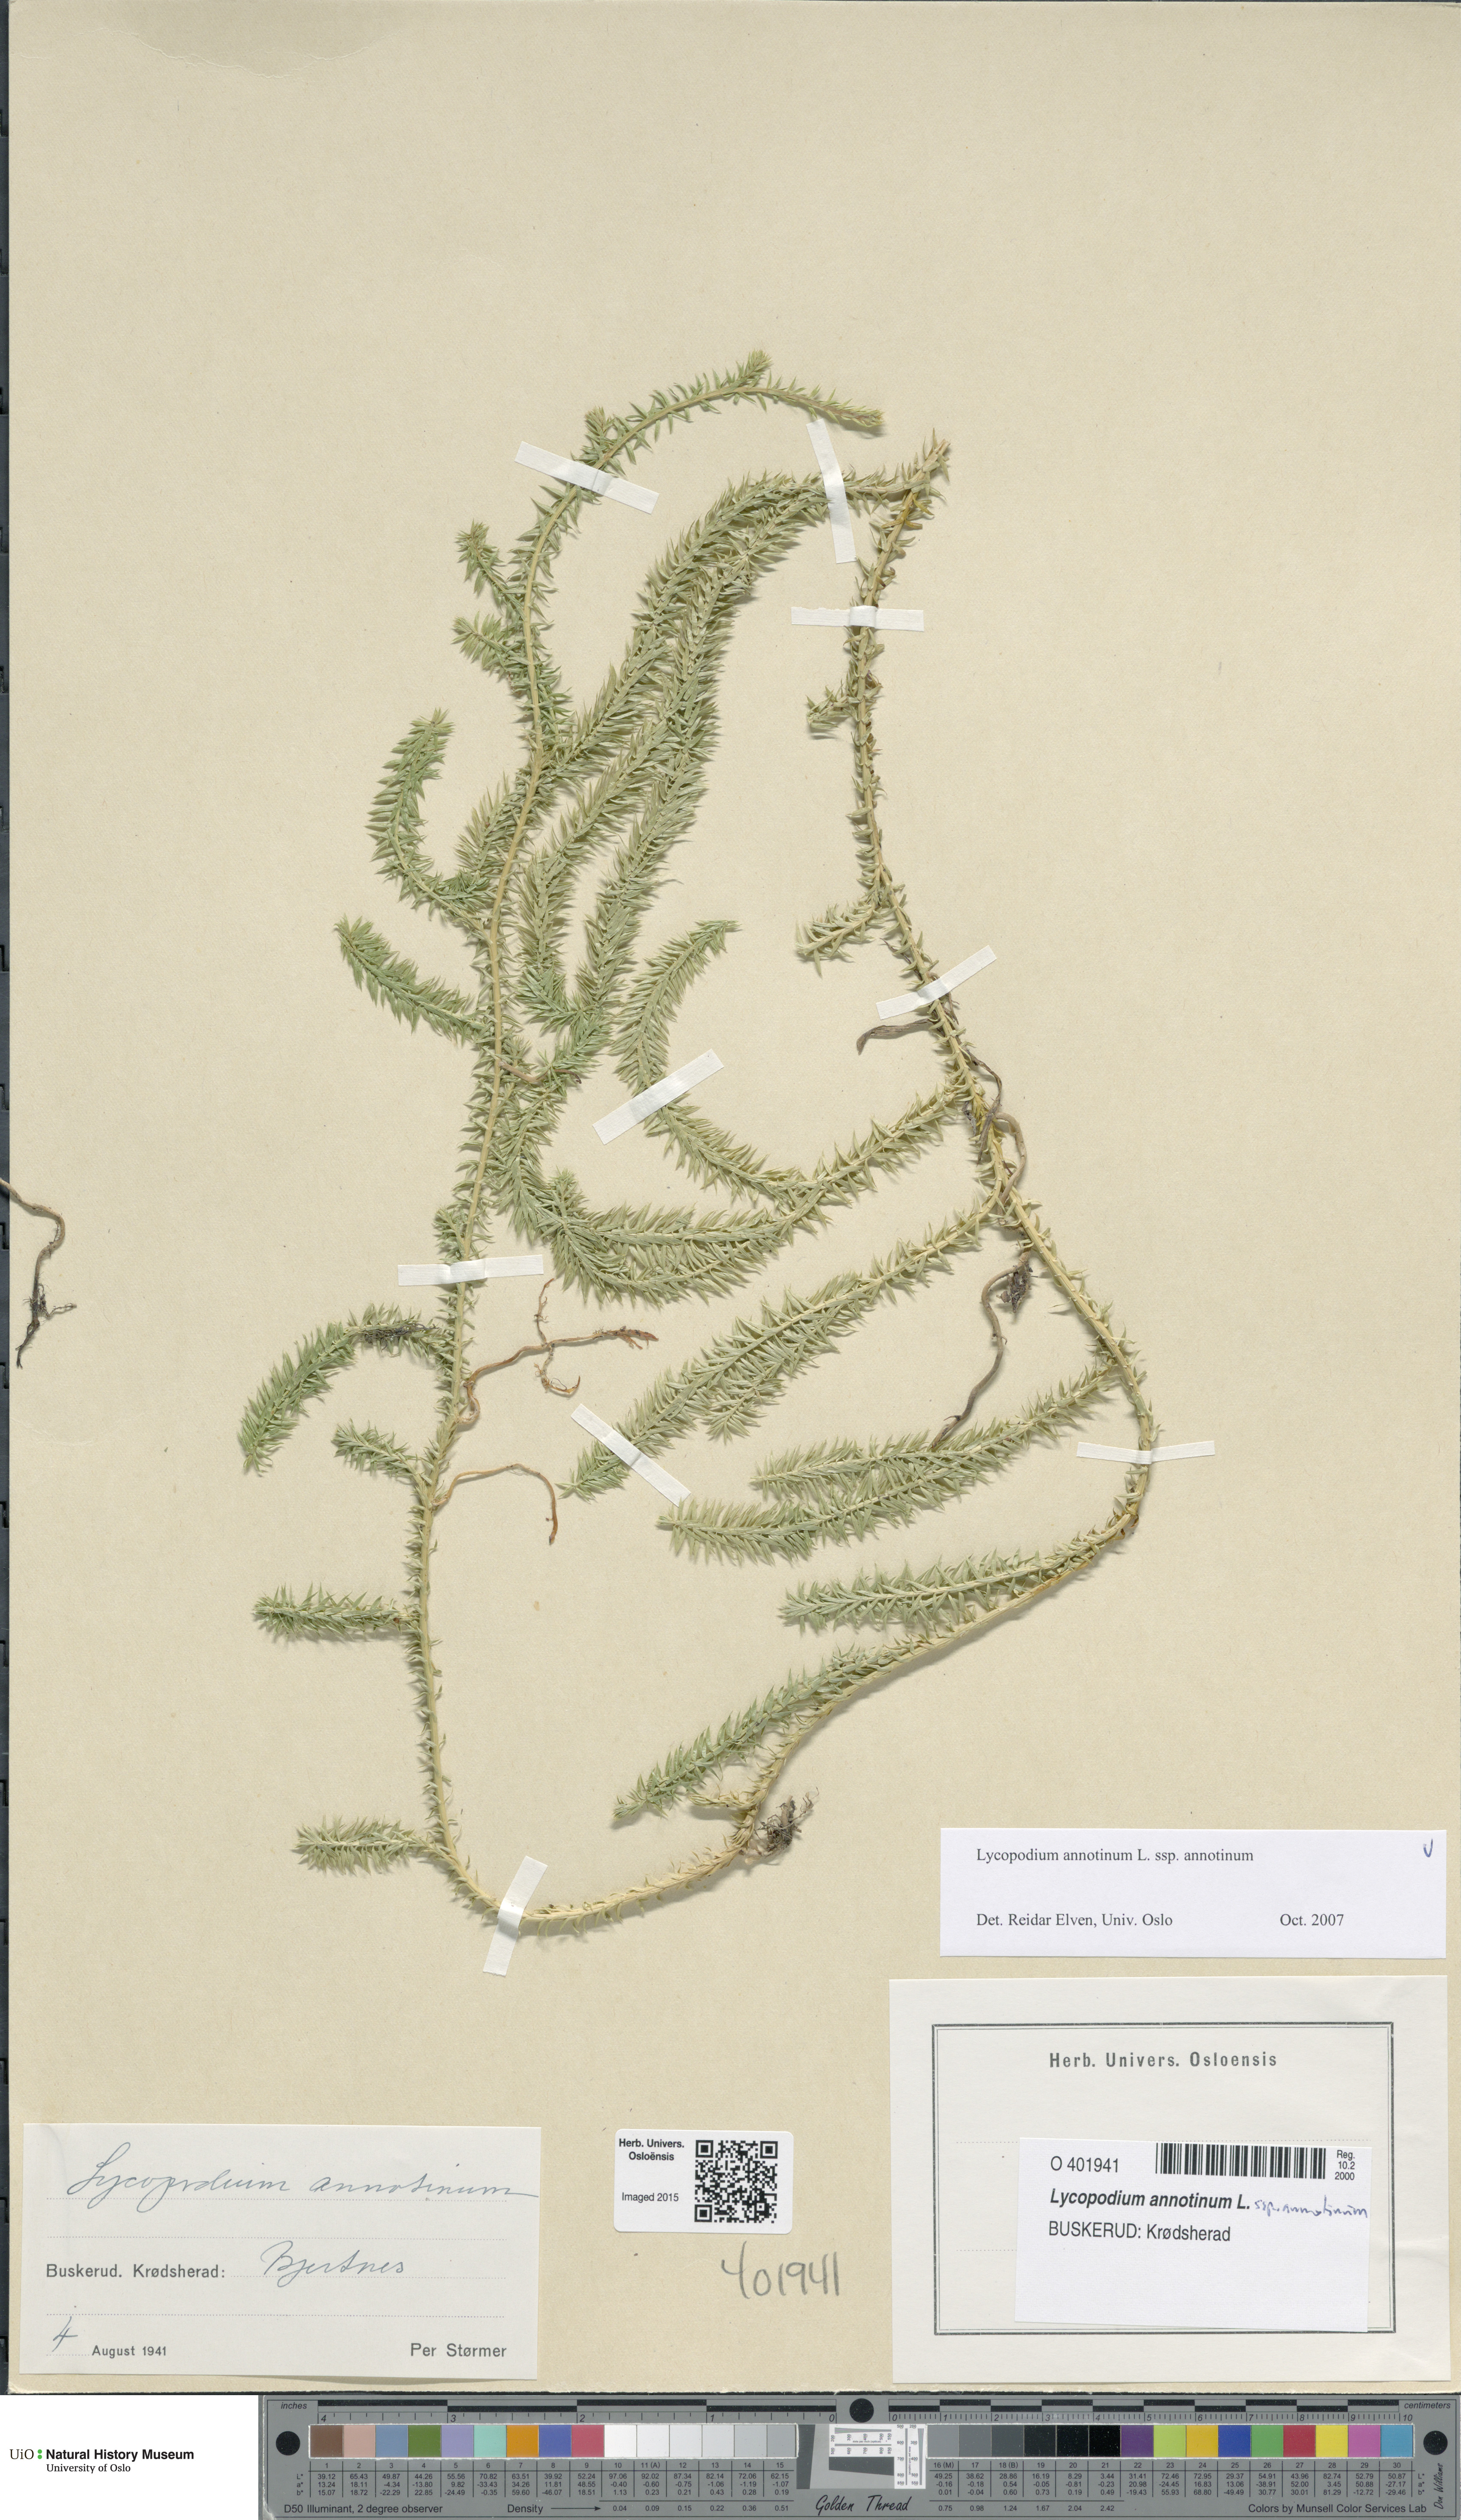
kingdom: Plantae
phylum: Tracheophyta
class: Lycopodiopsida
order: Lycopodiales
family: Lycopodiaceae
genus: Spinulum
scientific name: Spinulum annotinum
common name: Interrupted club-moss
